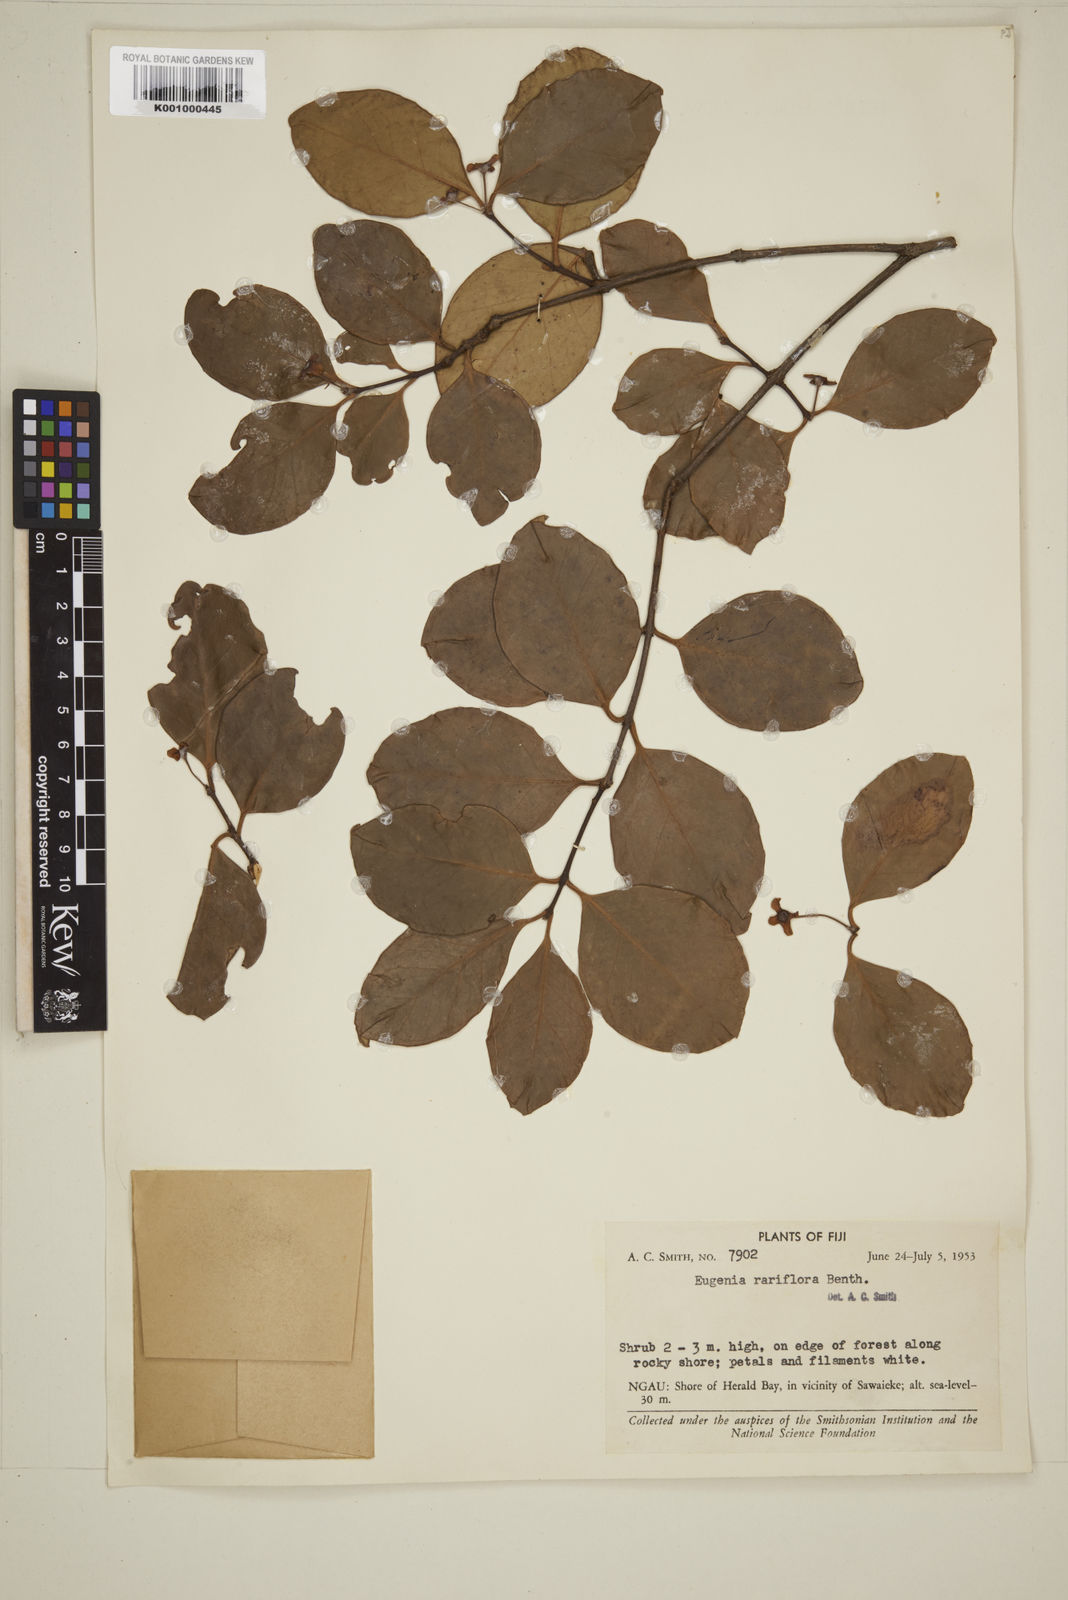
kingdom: Plantae
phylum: Tracheophyta
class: Magnoliopsida
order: Myrtales
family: Myrtaceae
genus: Eugenia
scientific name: Eugenia reinwardtiana
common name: Cedar bay-cherry
